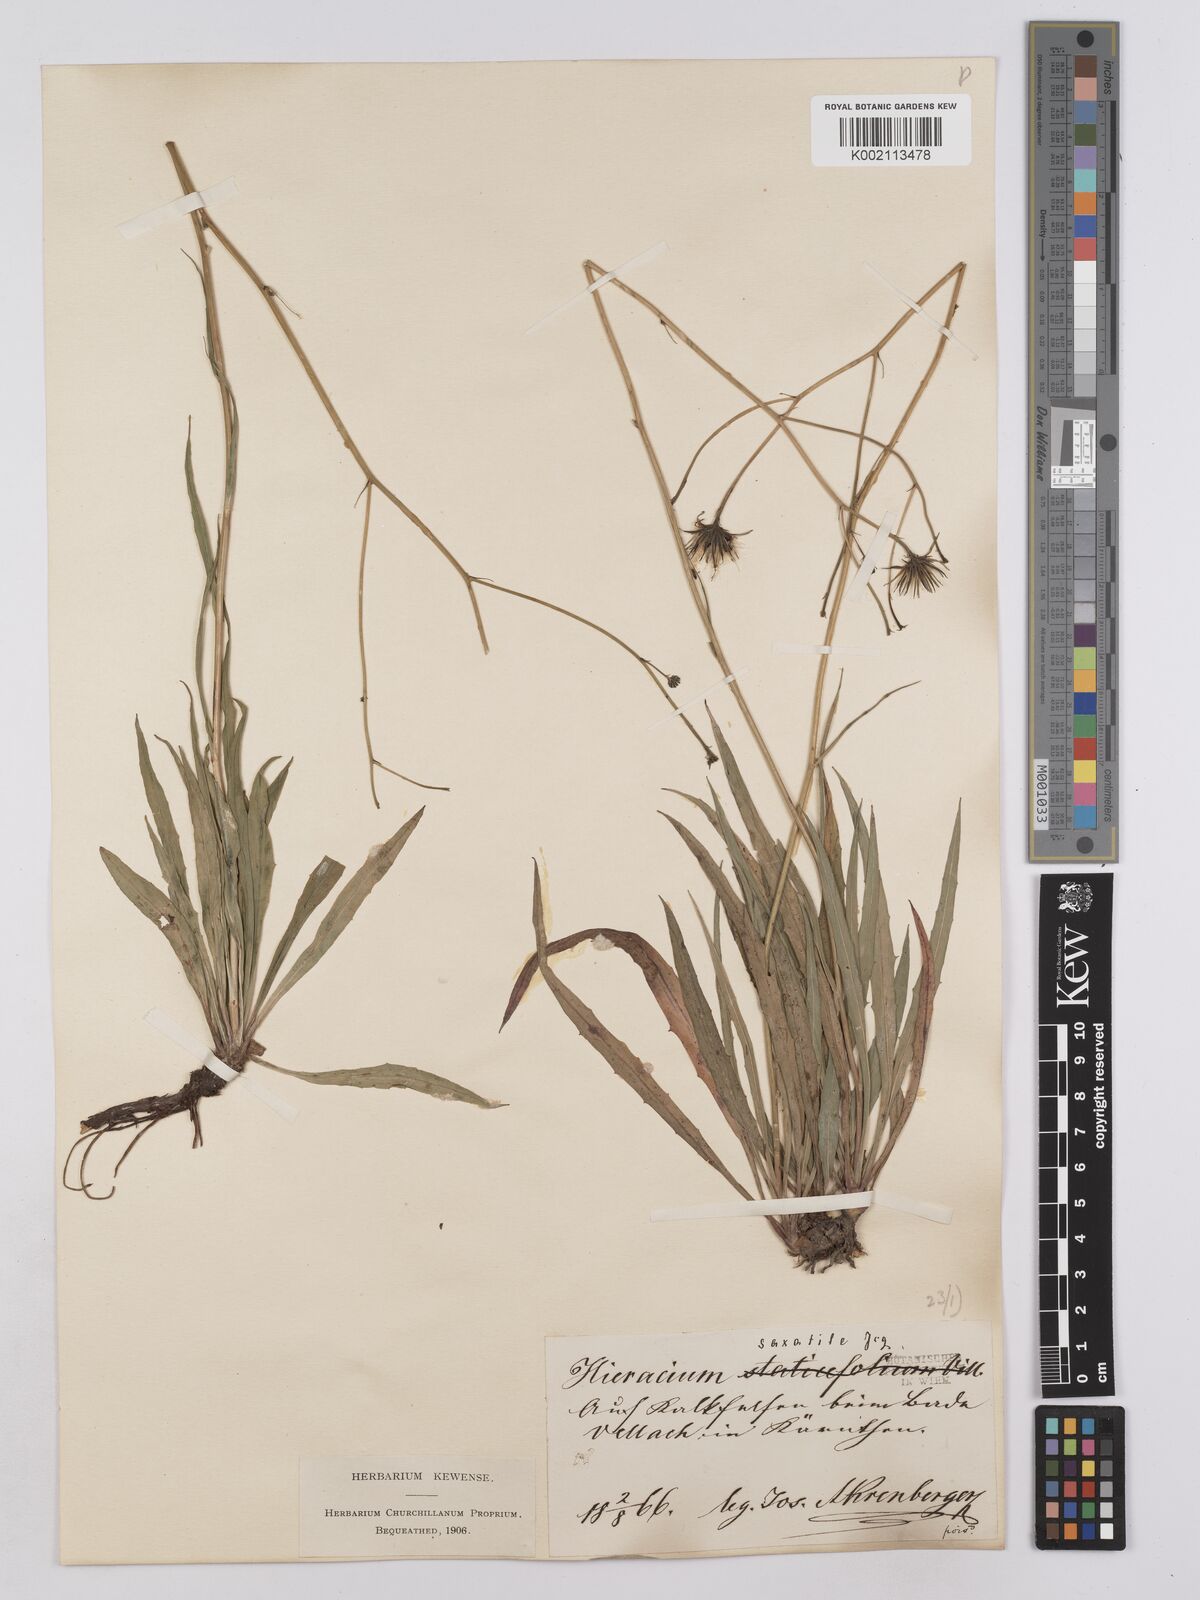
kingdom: Plantae
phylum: Tracheophyta
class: Magnoliopsida
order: Asterales
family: Asteraceae
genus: Hieracium
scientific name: Hieracium saxatile
